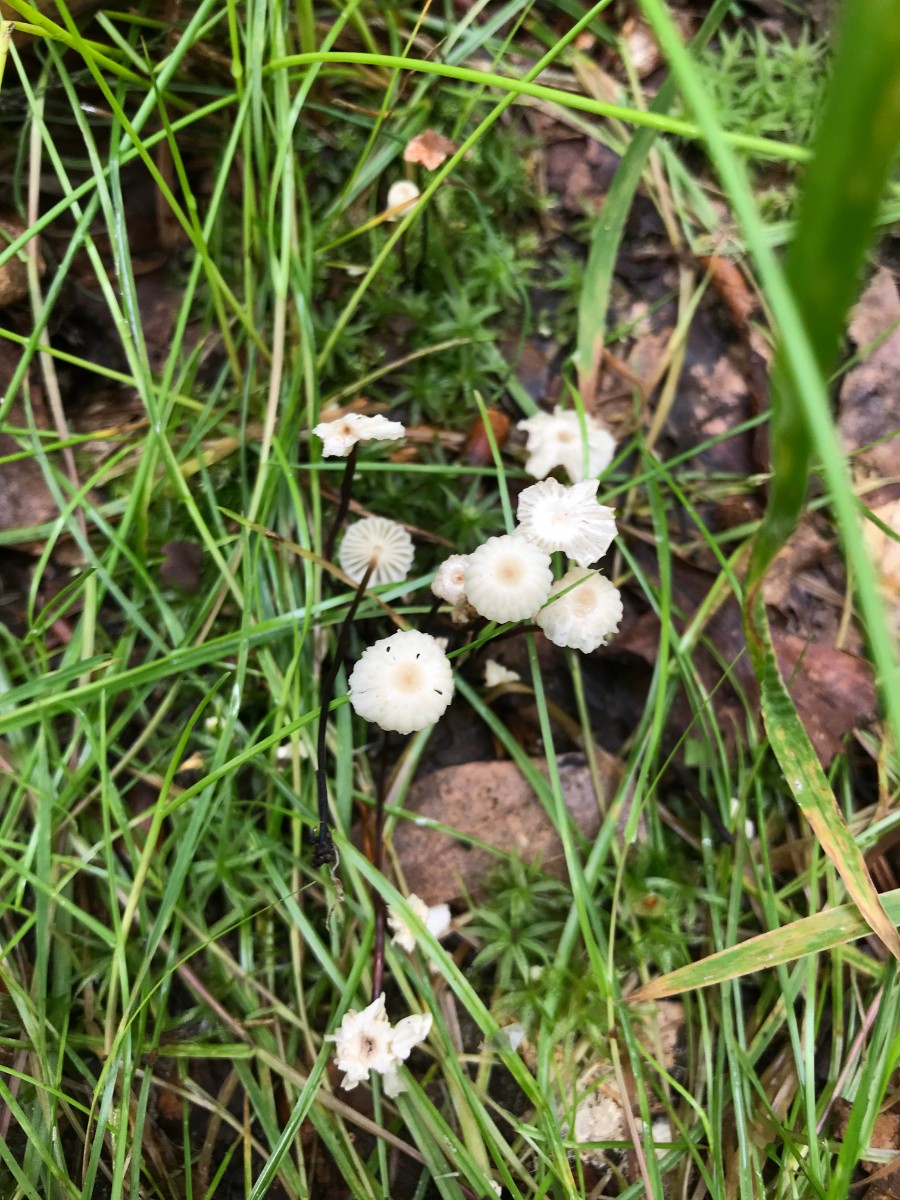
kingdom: Fungi
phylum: Basidiomycota
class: Agaricomycetes
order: Agaricales
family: Marasmiaceae
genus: Marasmius
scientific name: Marasmius rotula
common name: hjul-bruskhat
